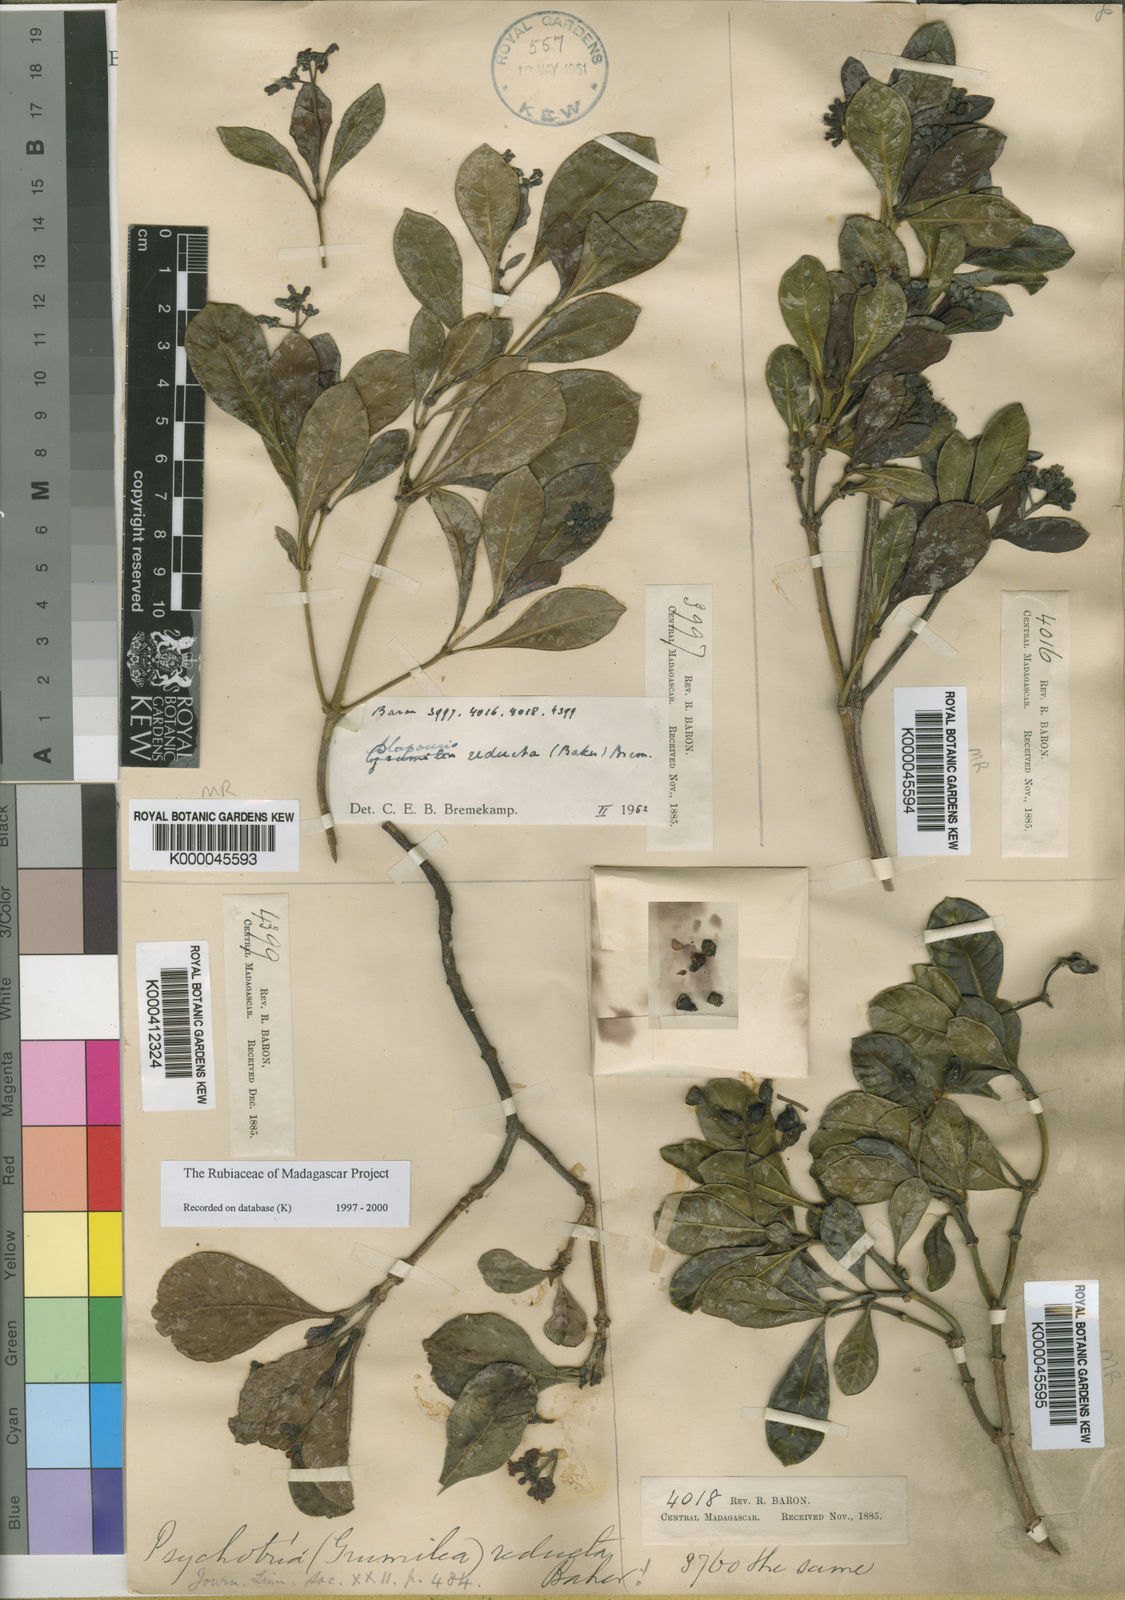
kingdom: Plantae
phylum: Tracheophyta
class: Magnoliopsida
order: Gentianales
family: Rubiaceae
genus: Psychotria
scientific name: Psychotria reducta
